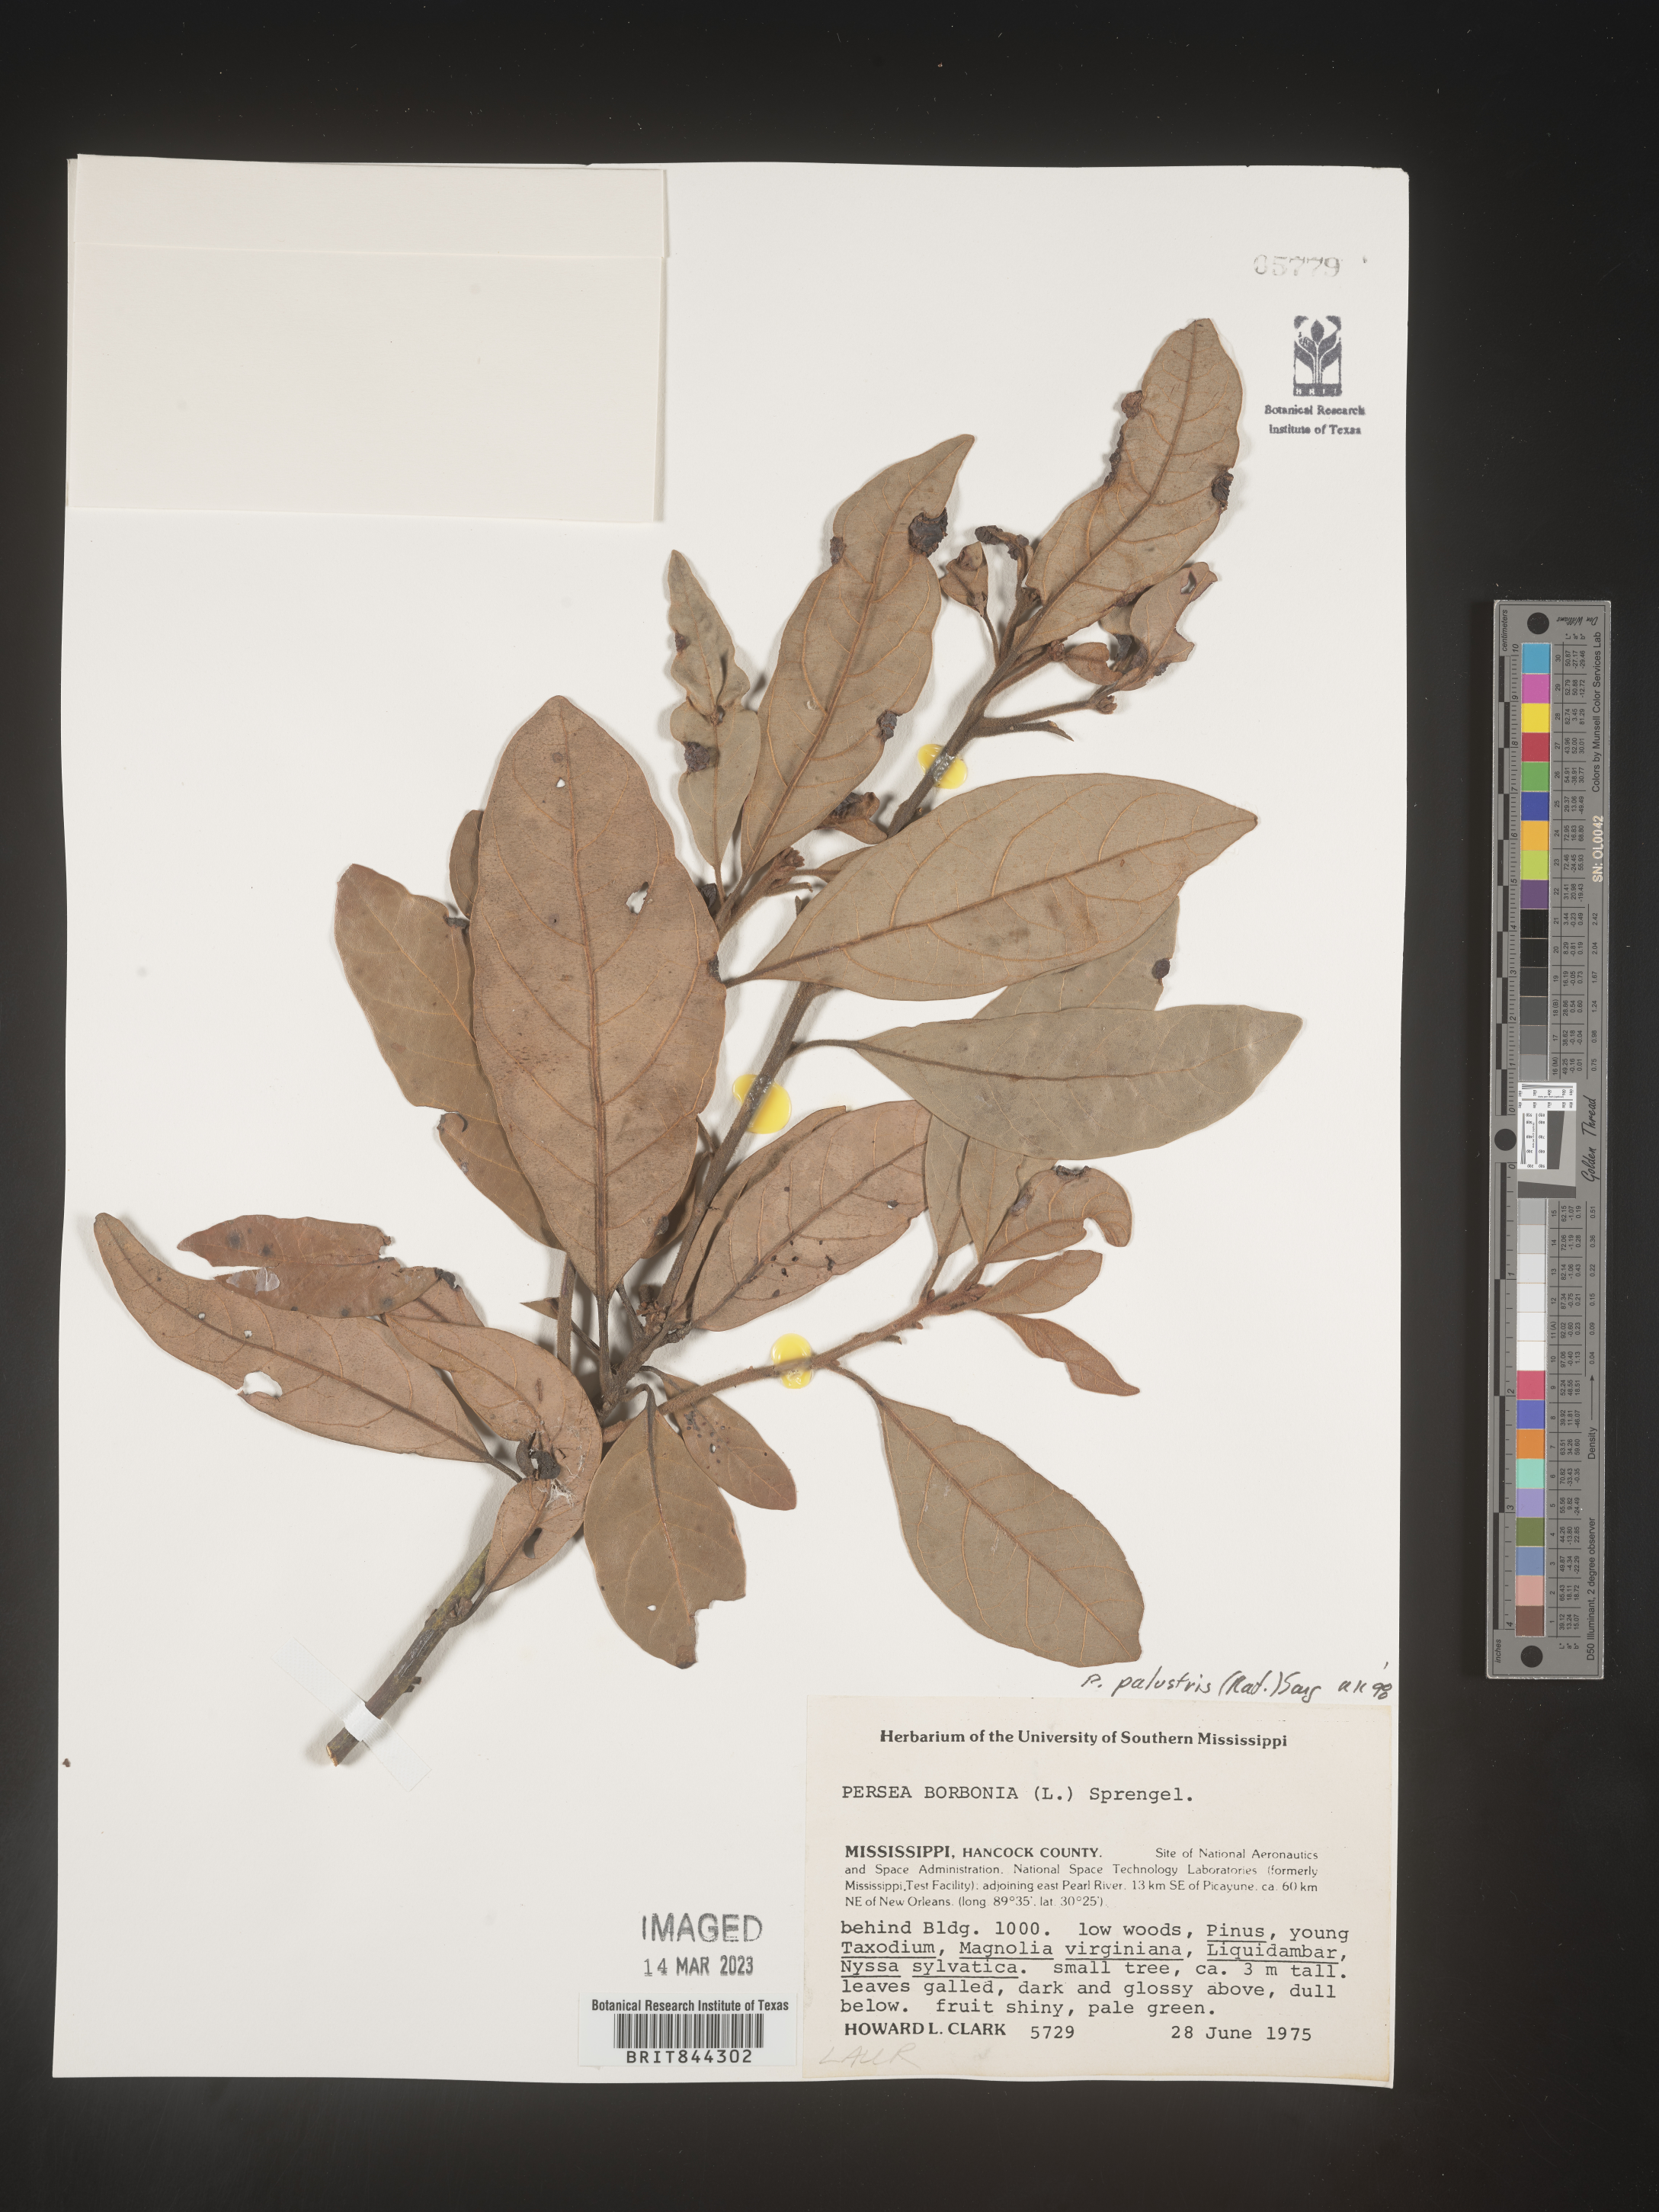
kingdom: Plantae
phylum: Tracheophyta
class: Magnoliopsida
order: Laurales
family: Lauraceae
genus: Persea
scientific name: Persea palustris
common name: Swampbay
